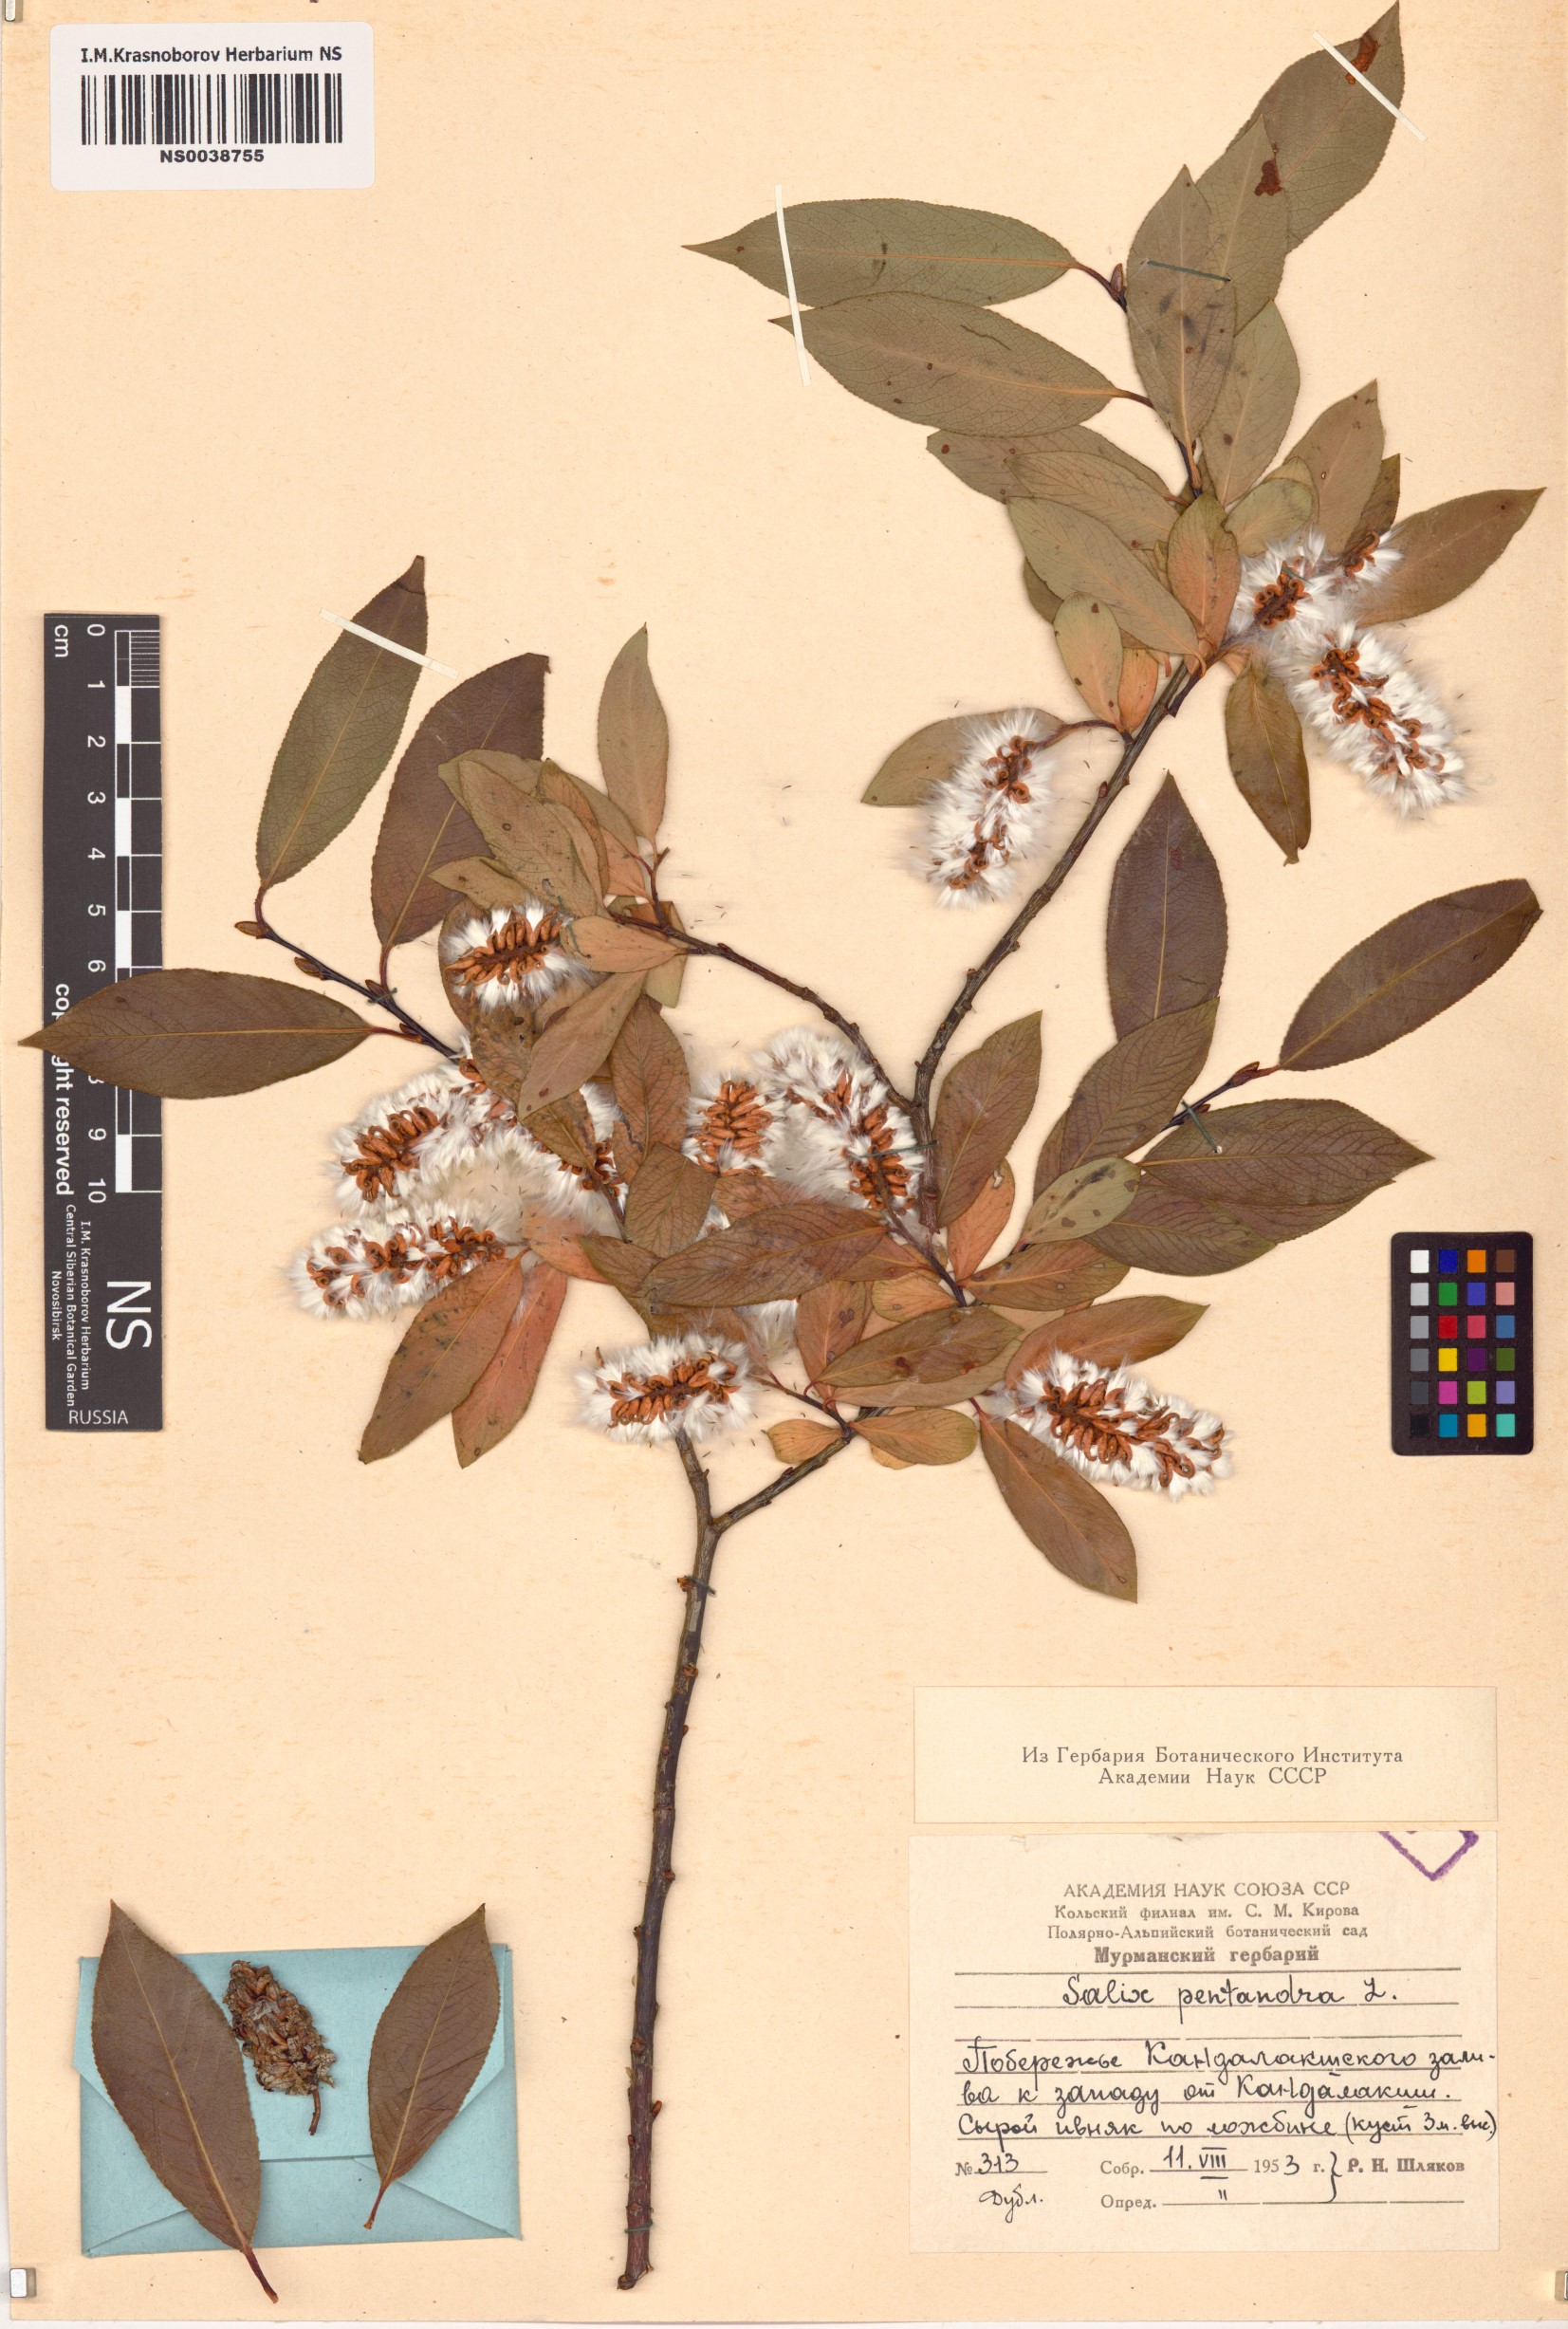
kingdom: Plantae
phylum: Tracheophyta
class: Magnoliopsida
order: Malpighiales
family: Salicaceae
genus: Salix
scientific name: Salix pentandra
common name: Bay willow
